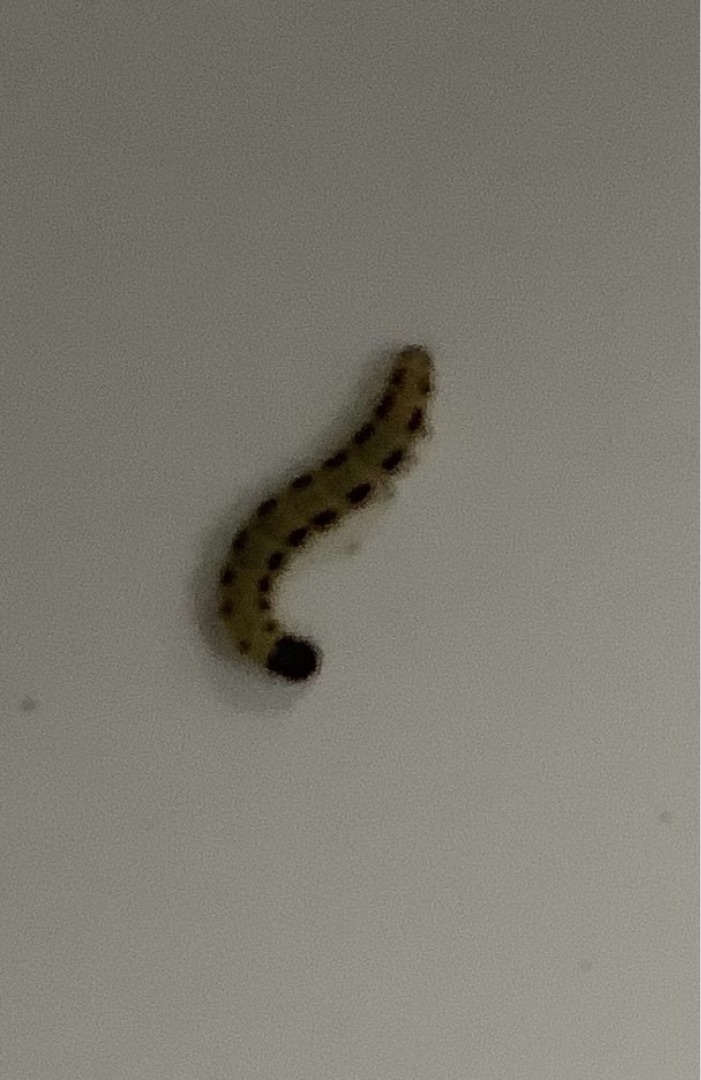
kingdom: Animalia
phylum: Arthropoda
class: Insecta
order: Lepidoptera
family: Yponomeutidae
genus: Yponomeuta
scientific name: Yponomeuta
